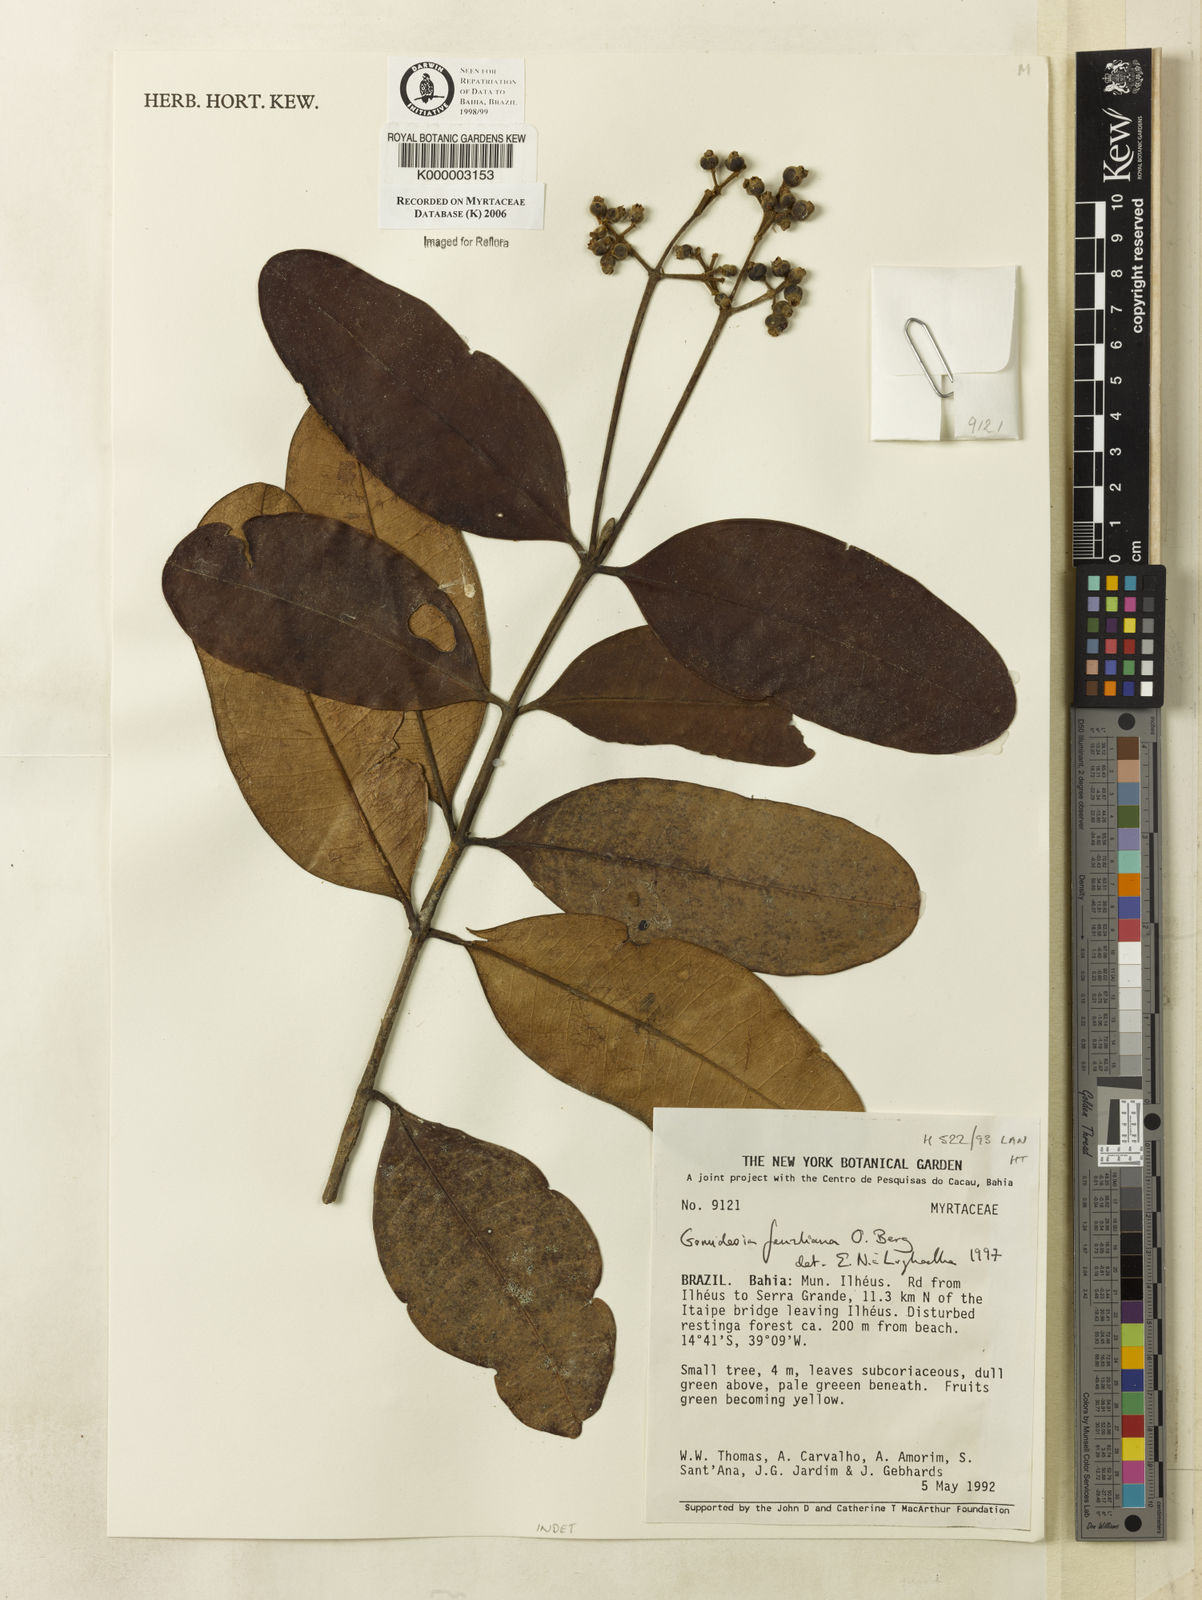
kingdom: Plantae
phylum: Tracheophyta
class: Magnoliopsida
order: Myrtales
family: Myrtaceae
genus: Myrcia
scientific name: Myrcia ilheosensis
